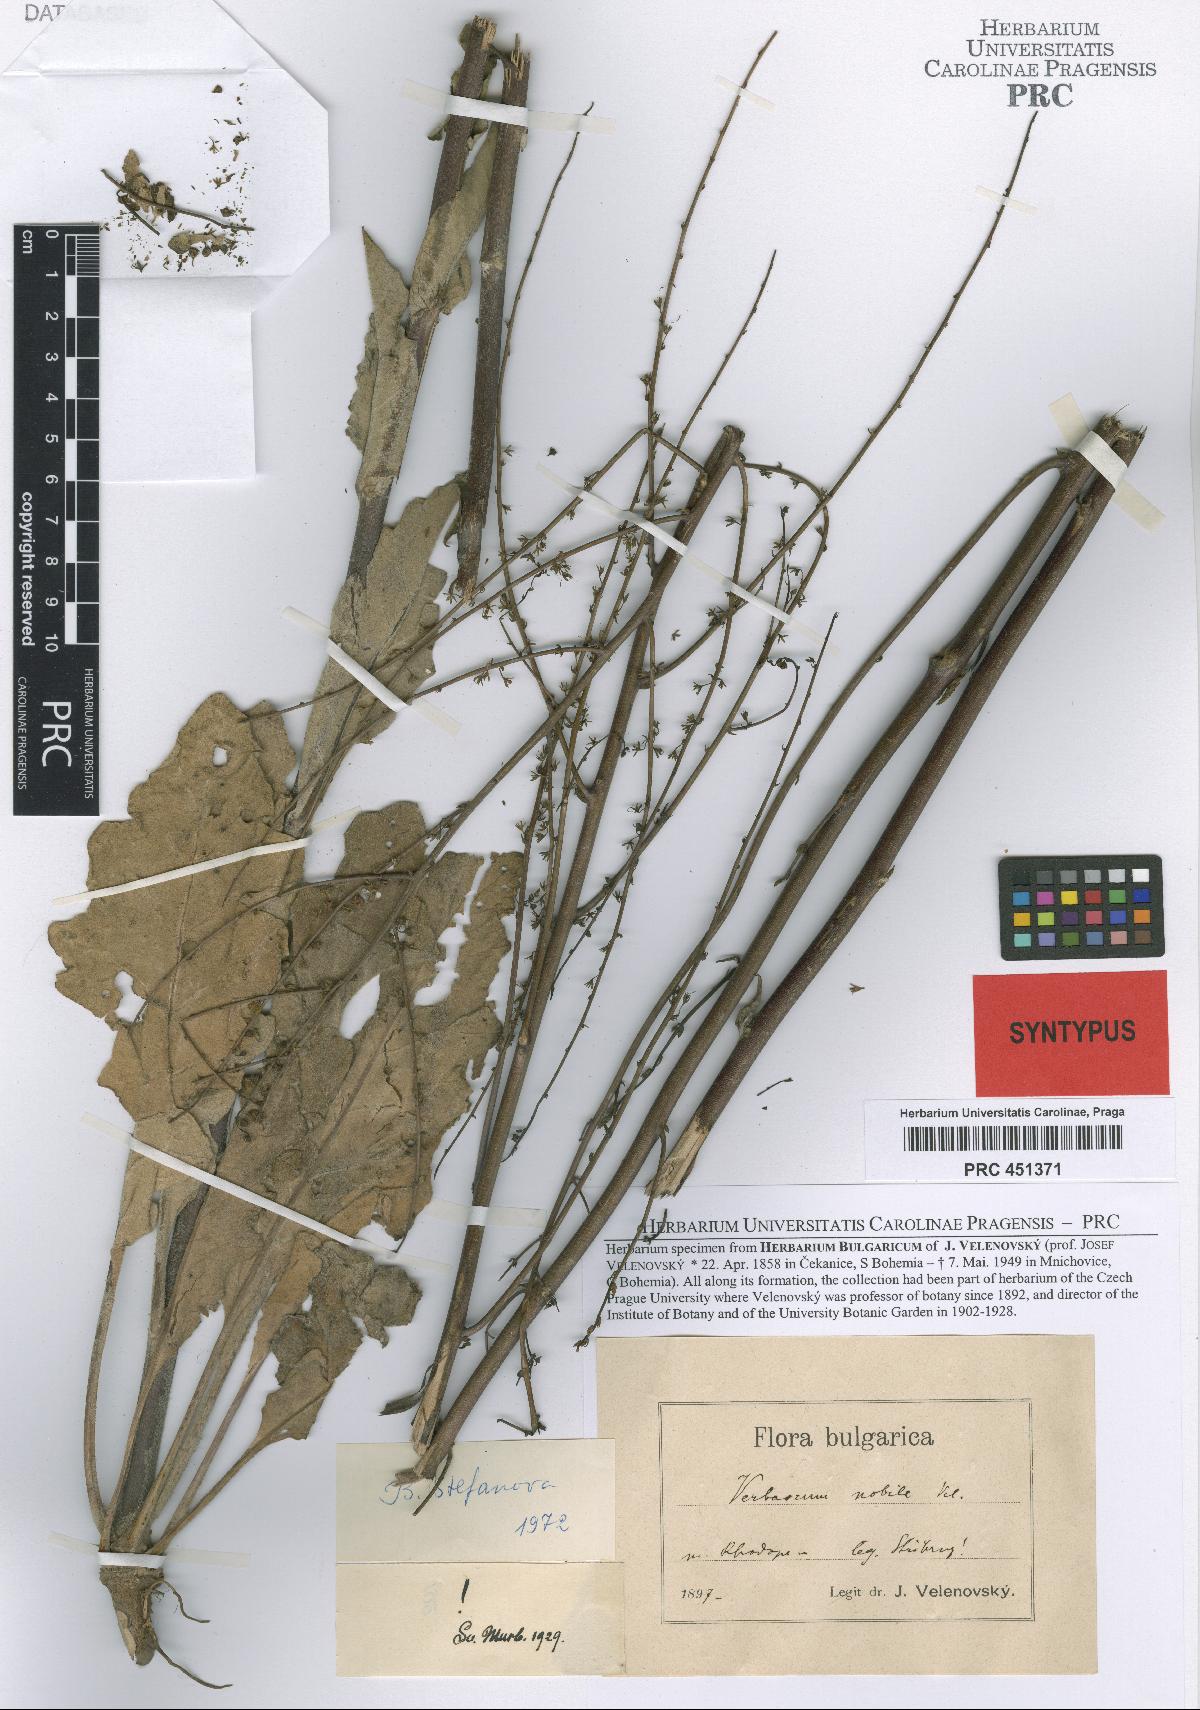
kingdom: Plantae
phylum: Tracheophyta
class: Magnoliopsida
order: Lamiales
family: Scrophulariaceae
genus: Verbascum
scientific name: Verbascum nobile
